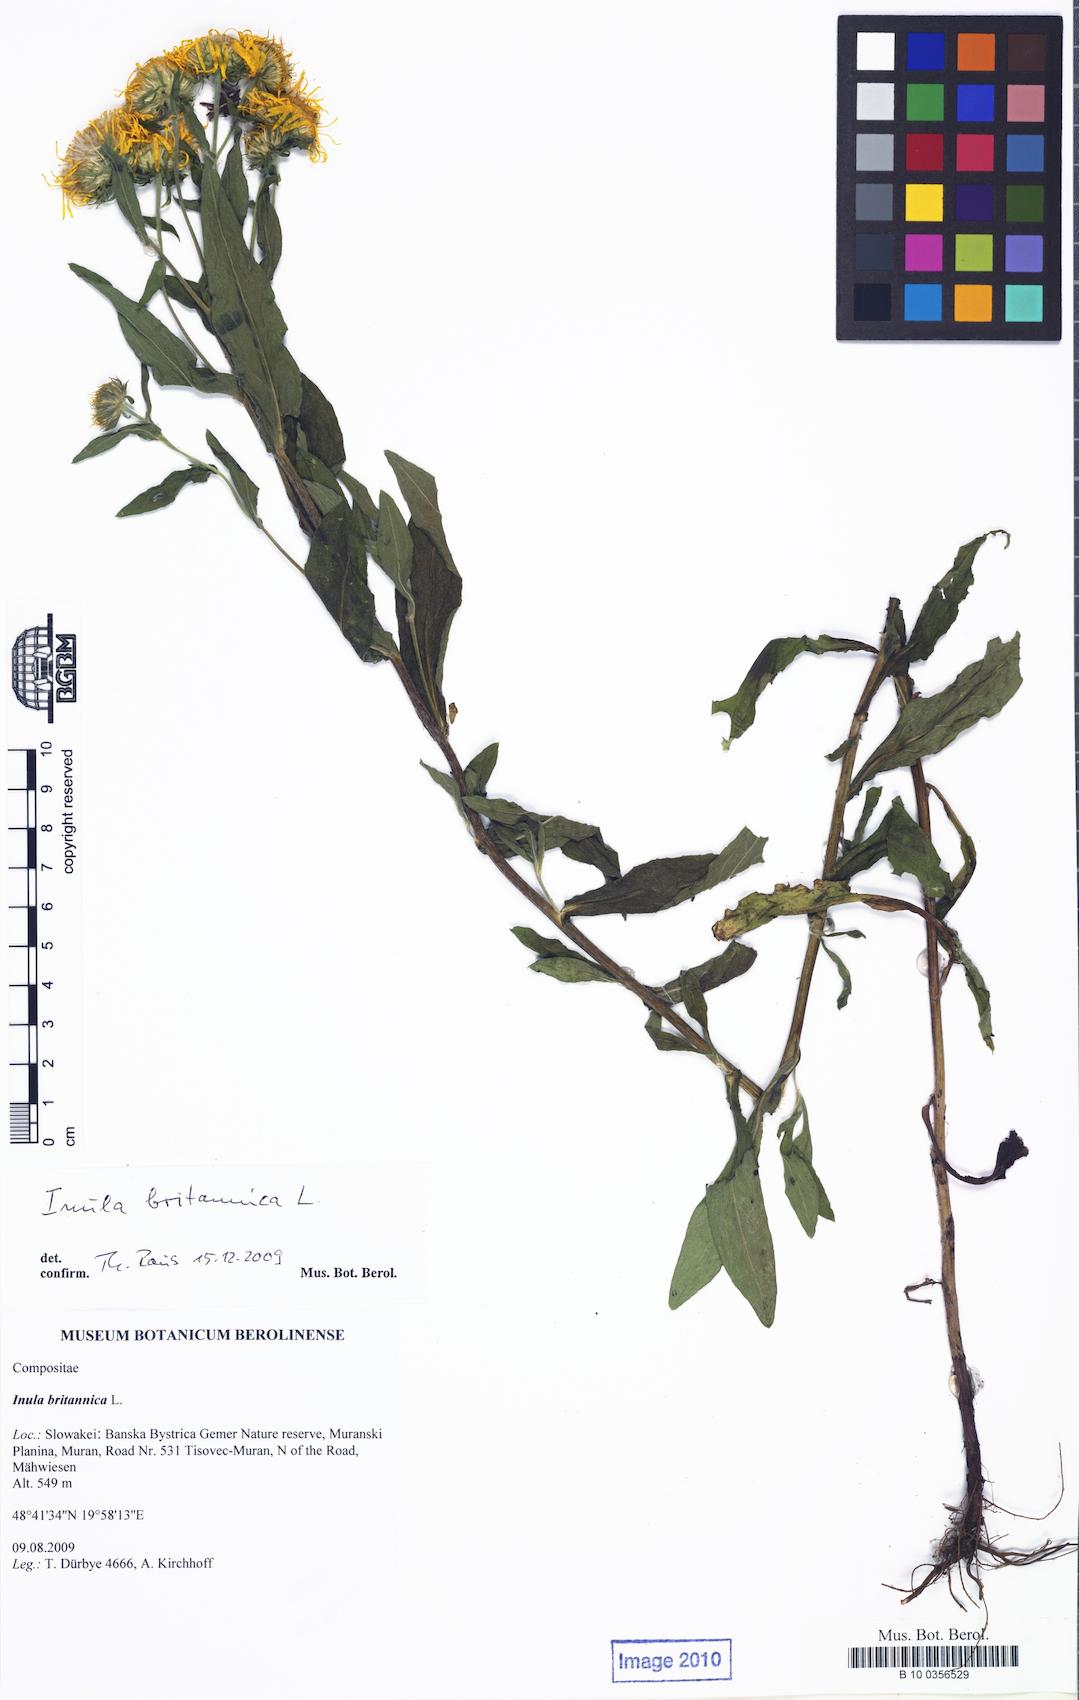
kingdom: Plantae
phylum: Tracheophyta
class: Magnoliopsida
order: Asterales
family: Asteraceae
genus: Pentanema
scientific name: Pentanema britannicum
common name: British elecampane
